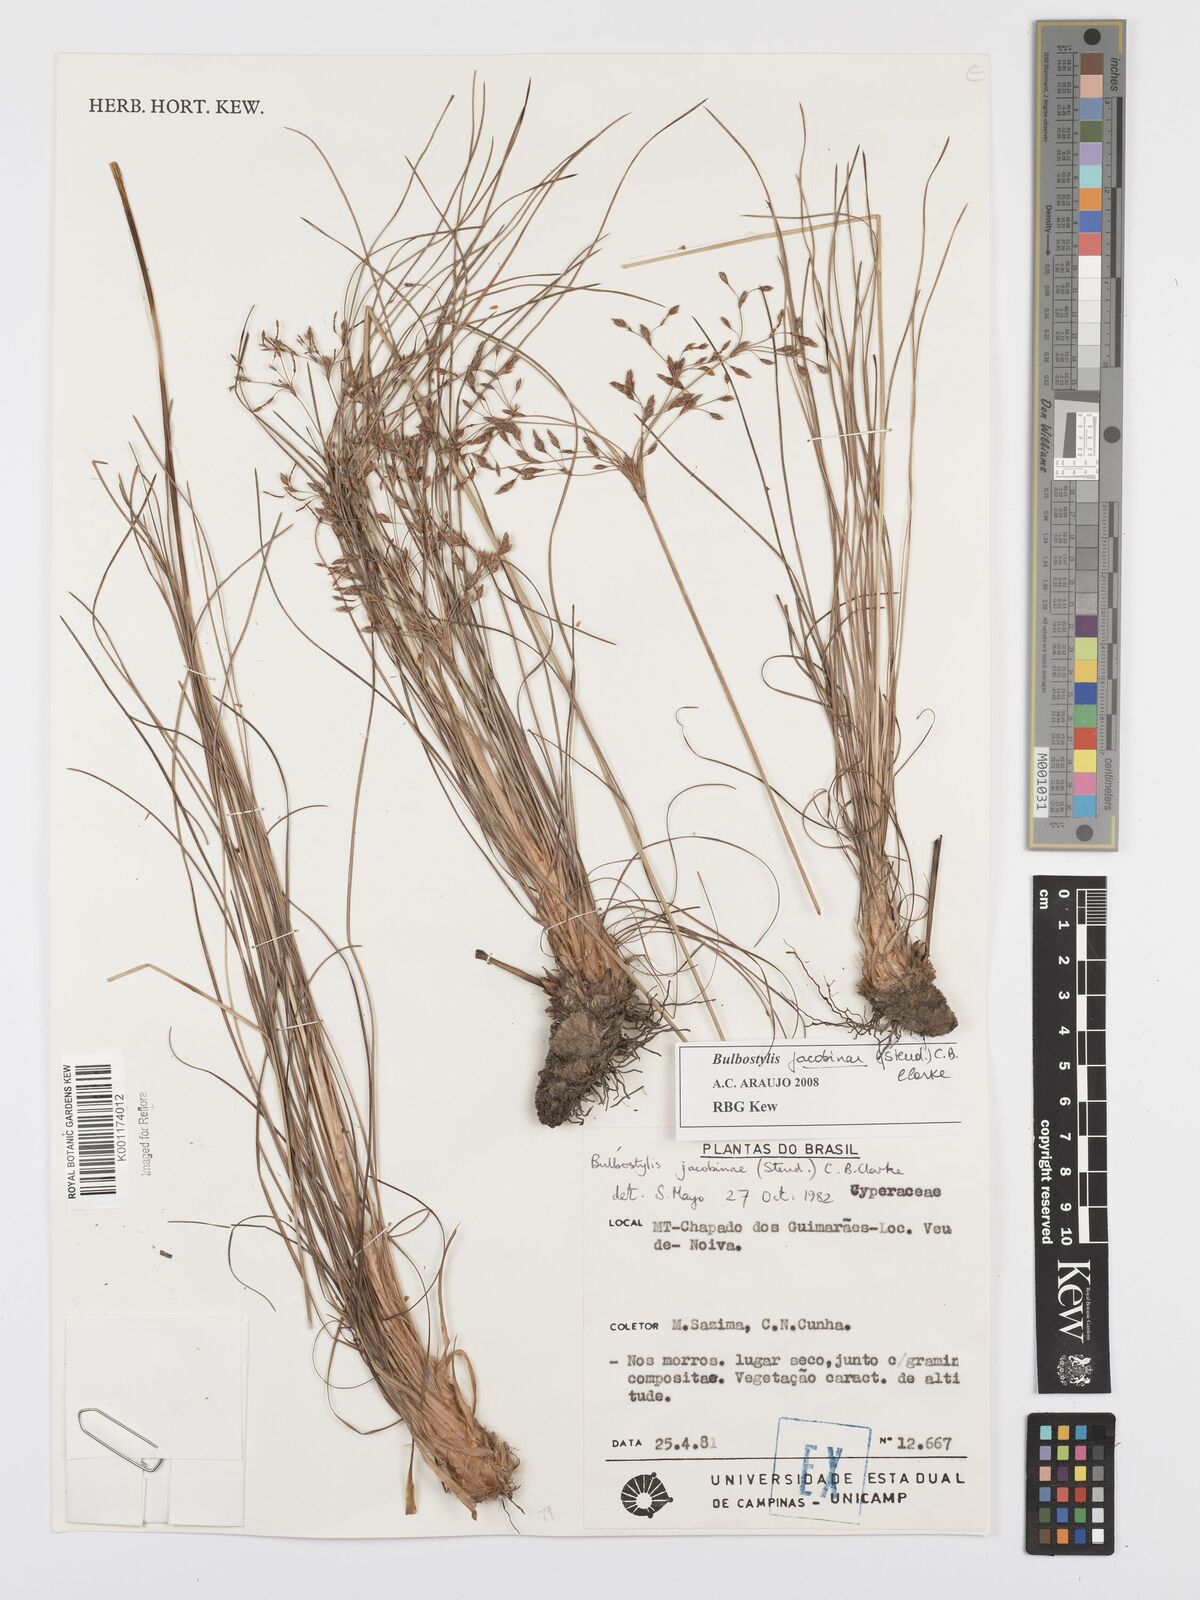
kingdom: Plantae
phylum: Tracheophyta
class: Liliopsida
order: Poales
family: Cyperaceae
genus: Bulbostylis
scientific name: Bulbostylis jacobinae
